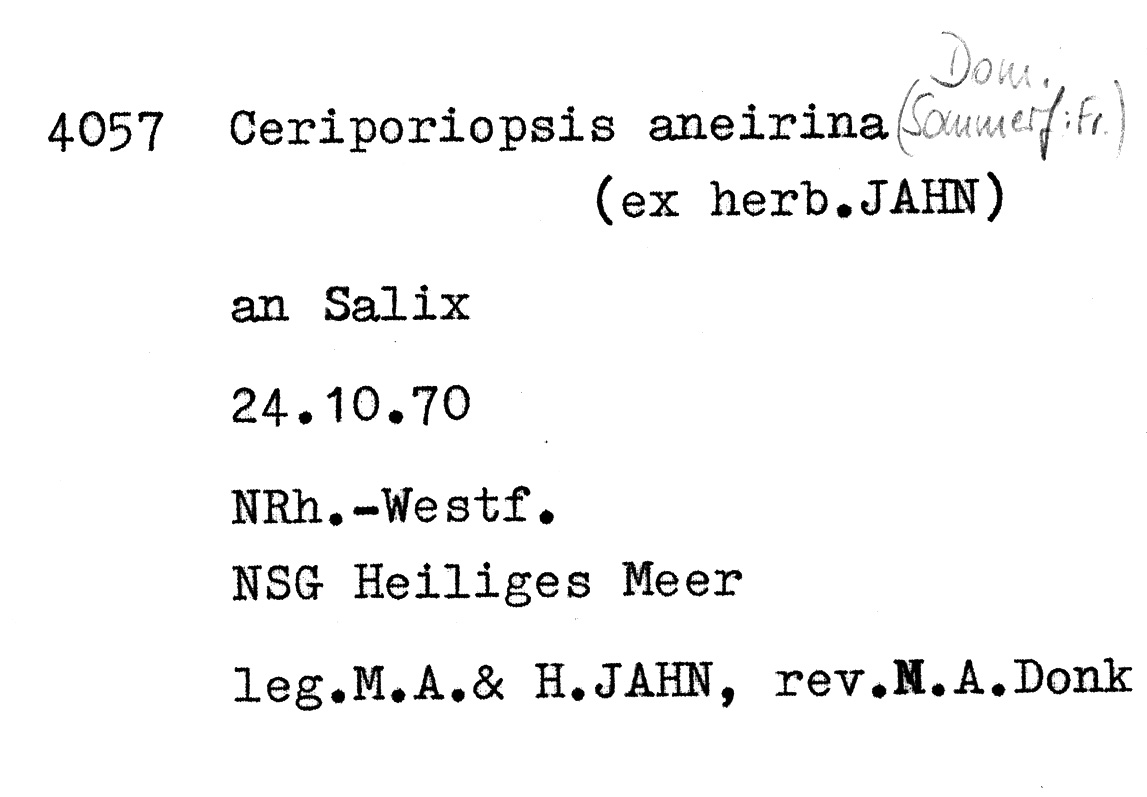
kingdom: Fungi
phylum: Basidiomycota
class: Agaricomycetes
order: Polyporales
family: Cerrenaceae
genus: Raduliporus
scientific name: Raduliporus aneirinus
